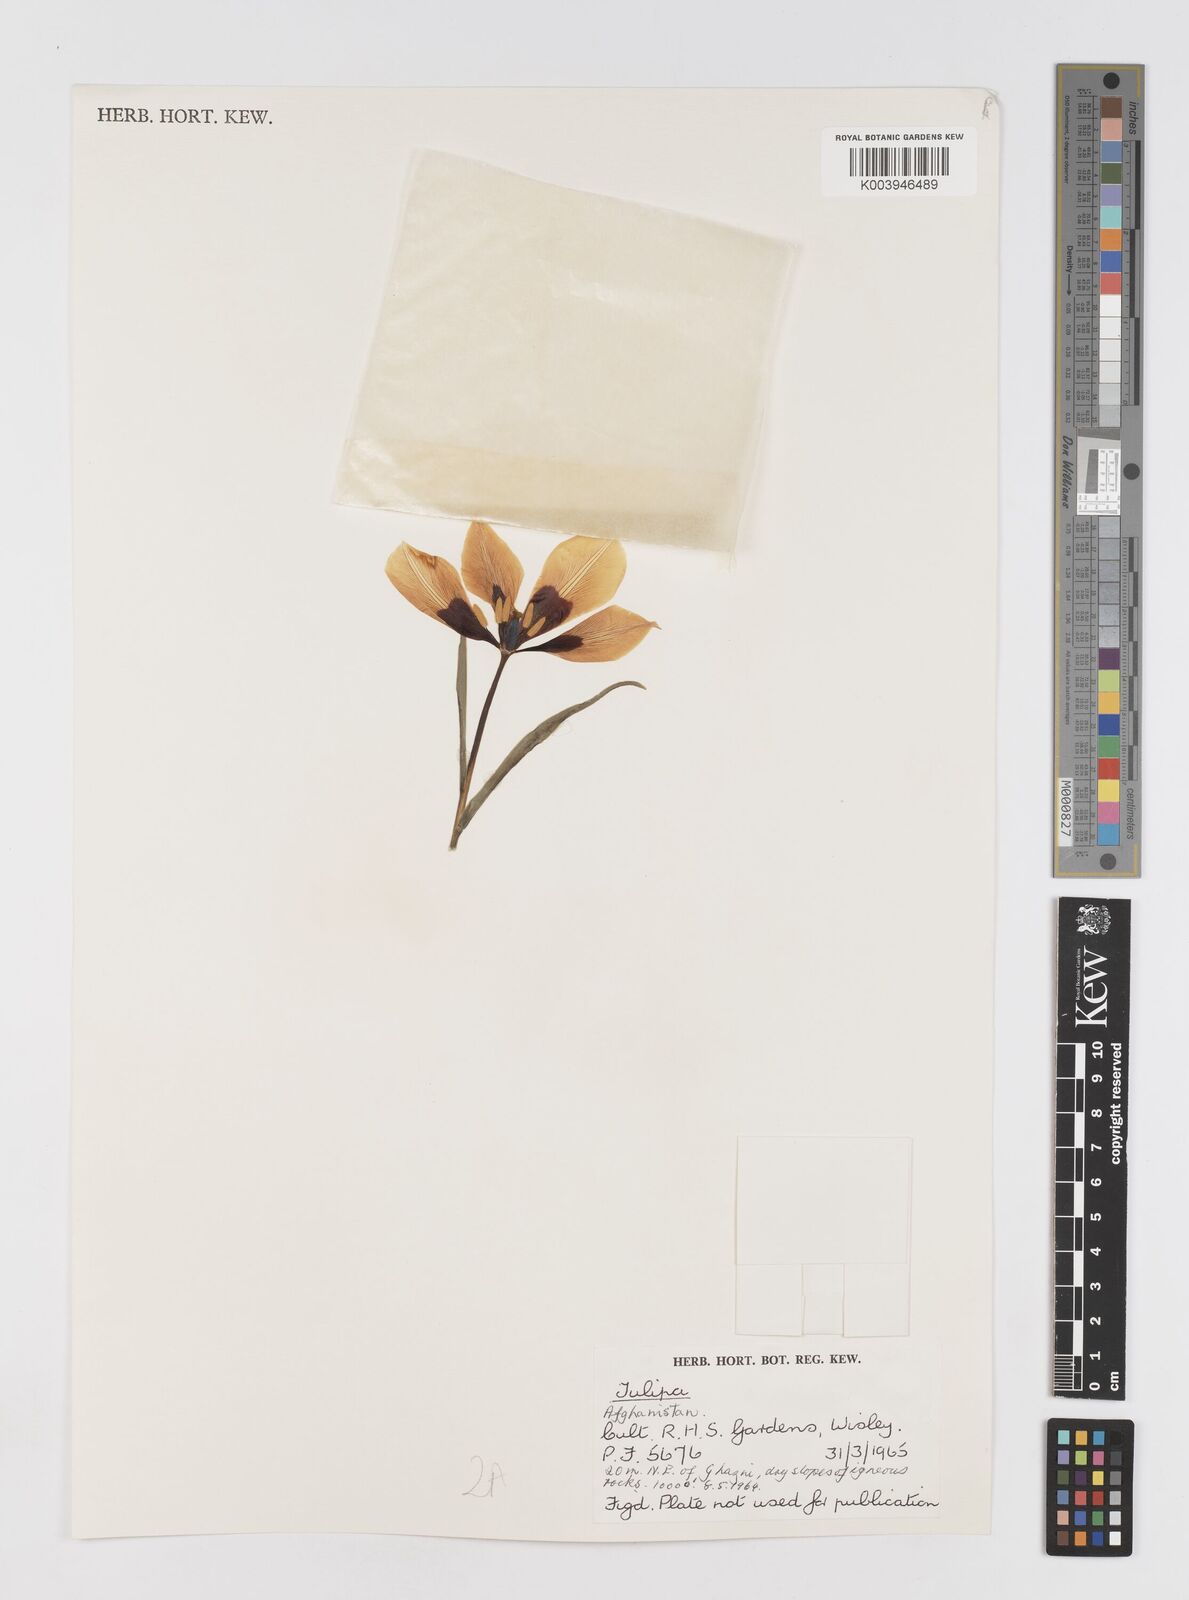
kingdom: Plantae
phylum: Tracheophyta
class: Liliopsida
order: Liliales
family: Liliaceae
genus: Tulipa
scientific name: Tulipa
